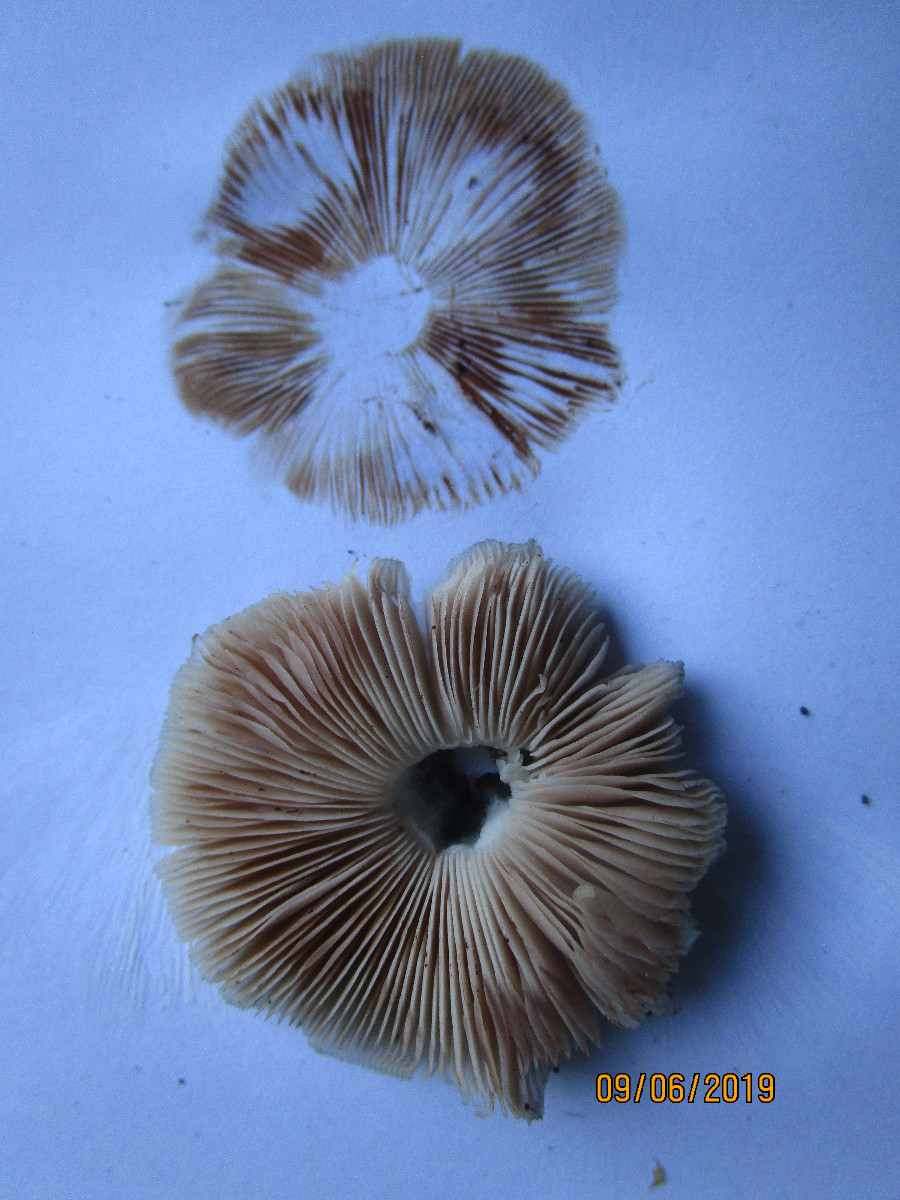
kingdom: Fungi
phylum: Basidiomycota
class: Agaricomycetes
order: Agaricales
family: Pluteaceae
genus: Pluteus
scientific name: Pluteus salicinus
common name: stiv skærmhat
